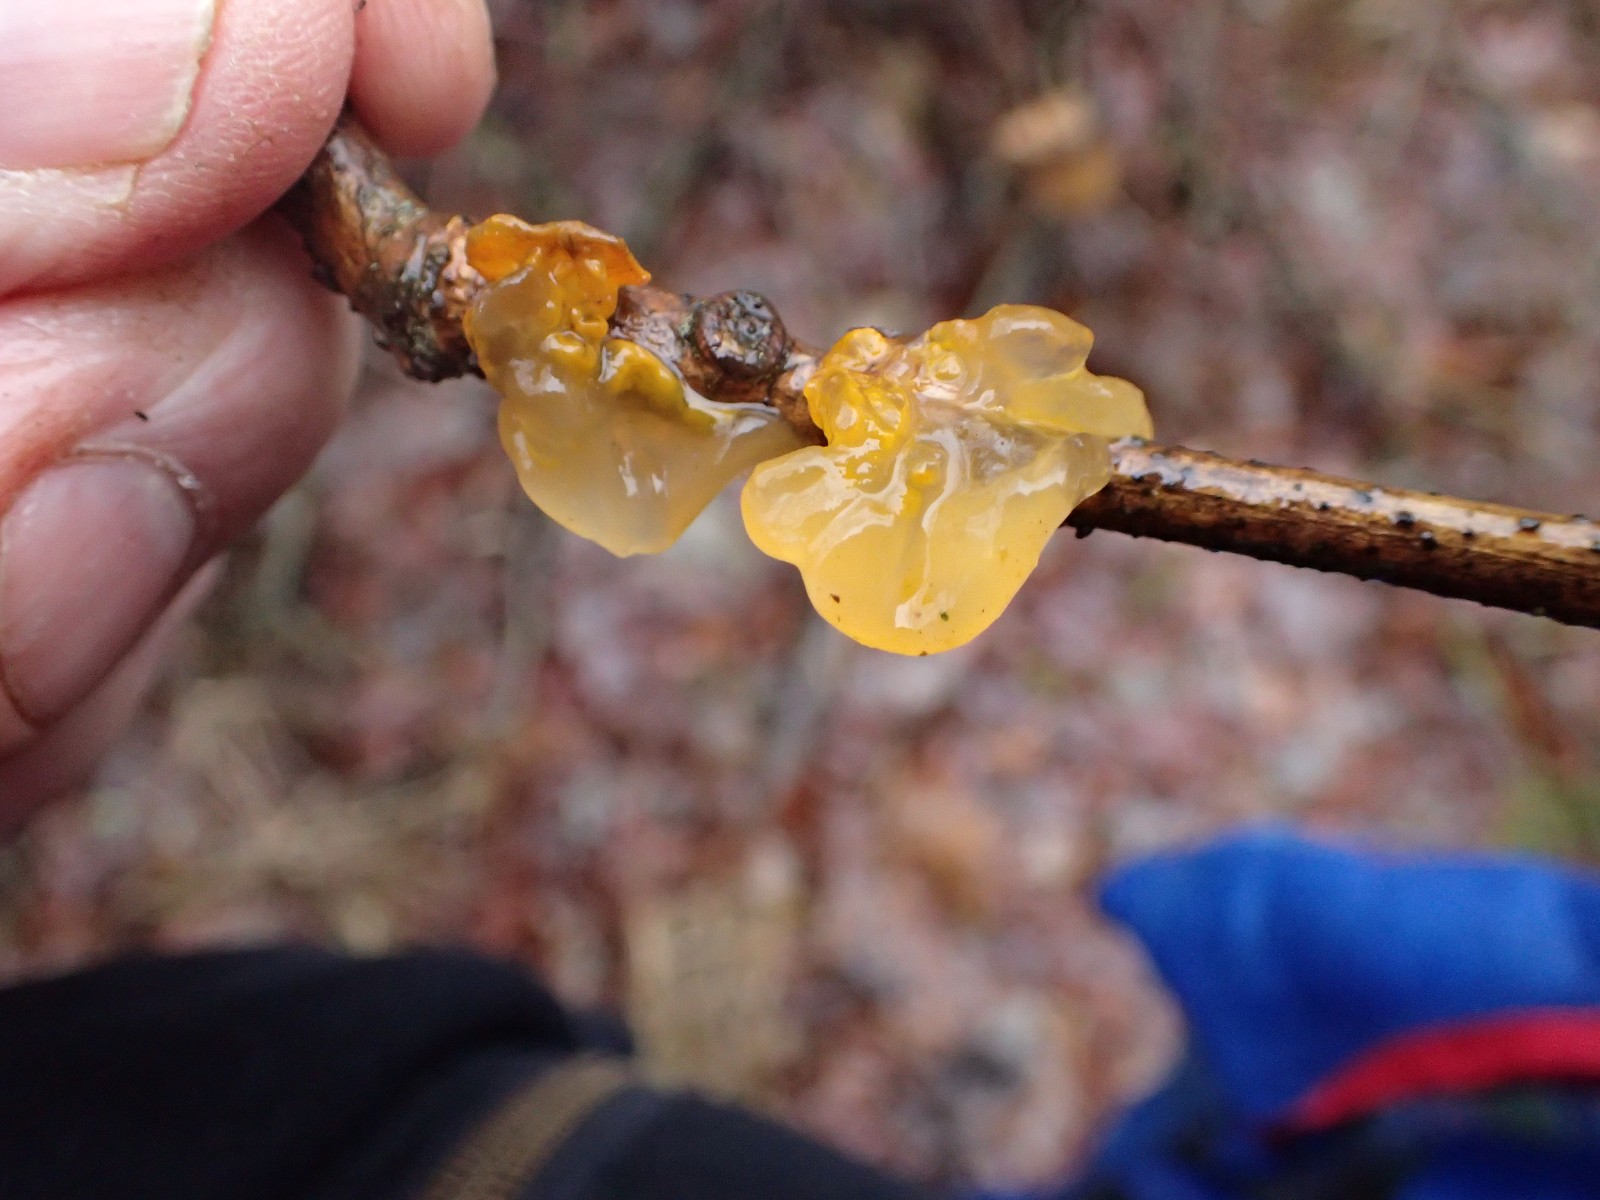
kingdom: Fungi
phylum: Basidiomycota
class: Tremellomycetes
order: Tremellales
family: Tremellaceae
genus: Tremella
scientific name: Tremella mesenterica
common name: gul bævresvamp
